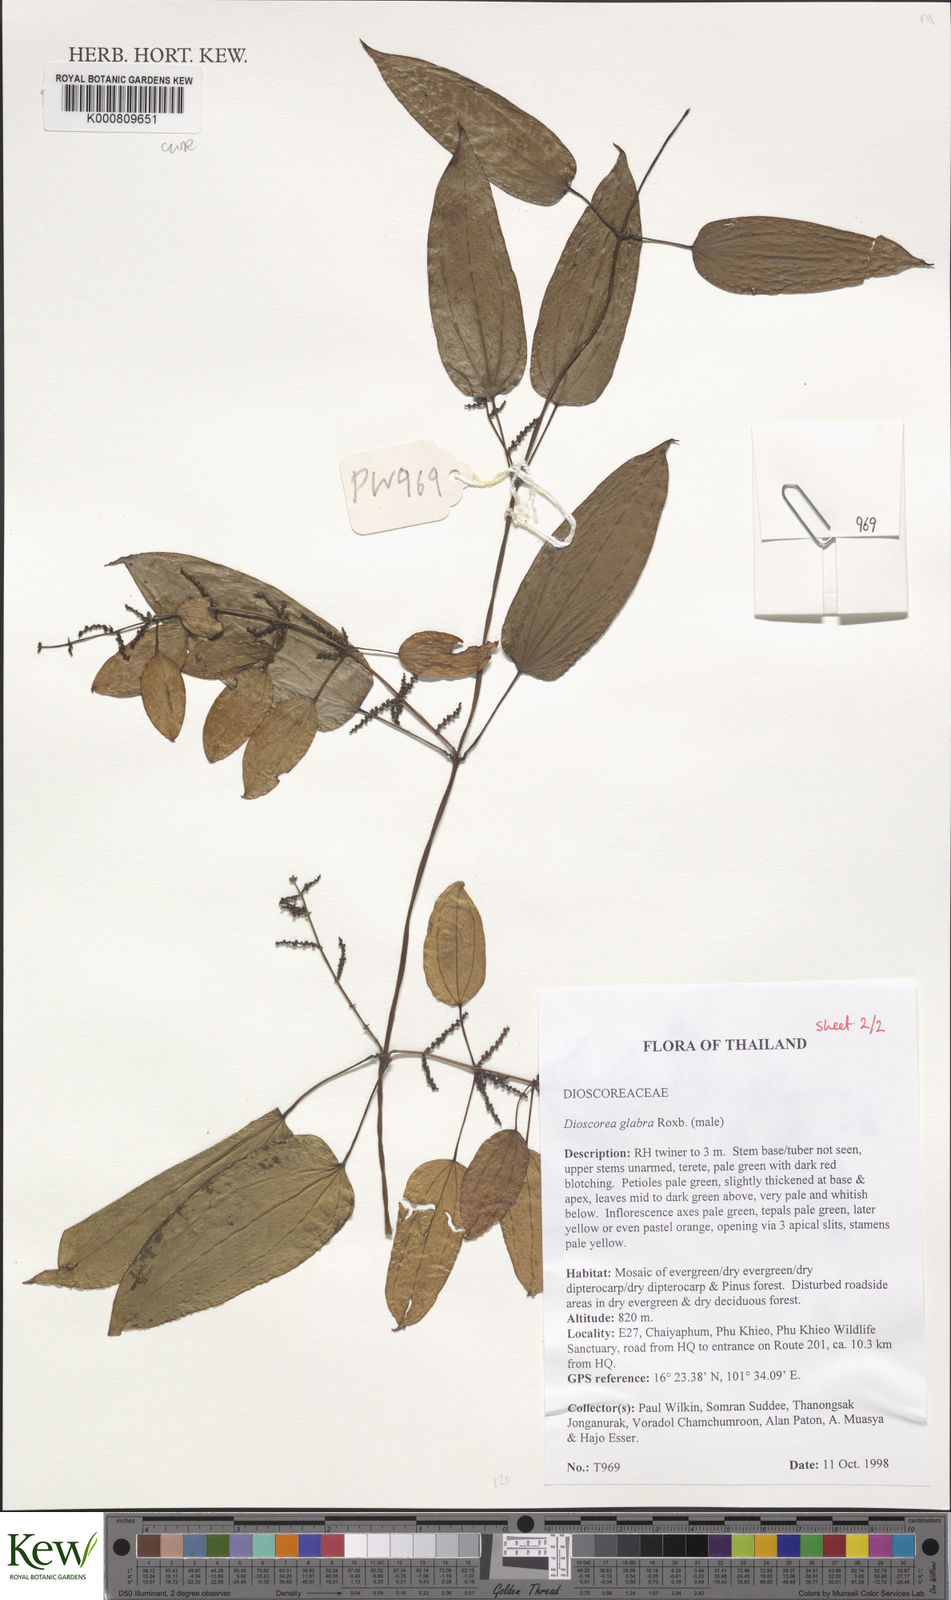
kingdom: Plantae
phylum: Tracheophyta
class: Liliopsida
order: Dioscoreales
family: Dioscoreaceae
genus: Dioscorea
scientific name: Dioscorea glabra
